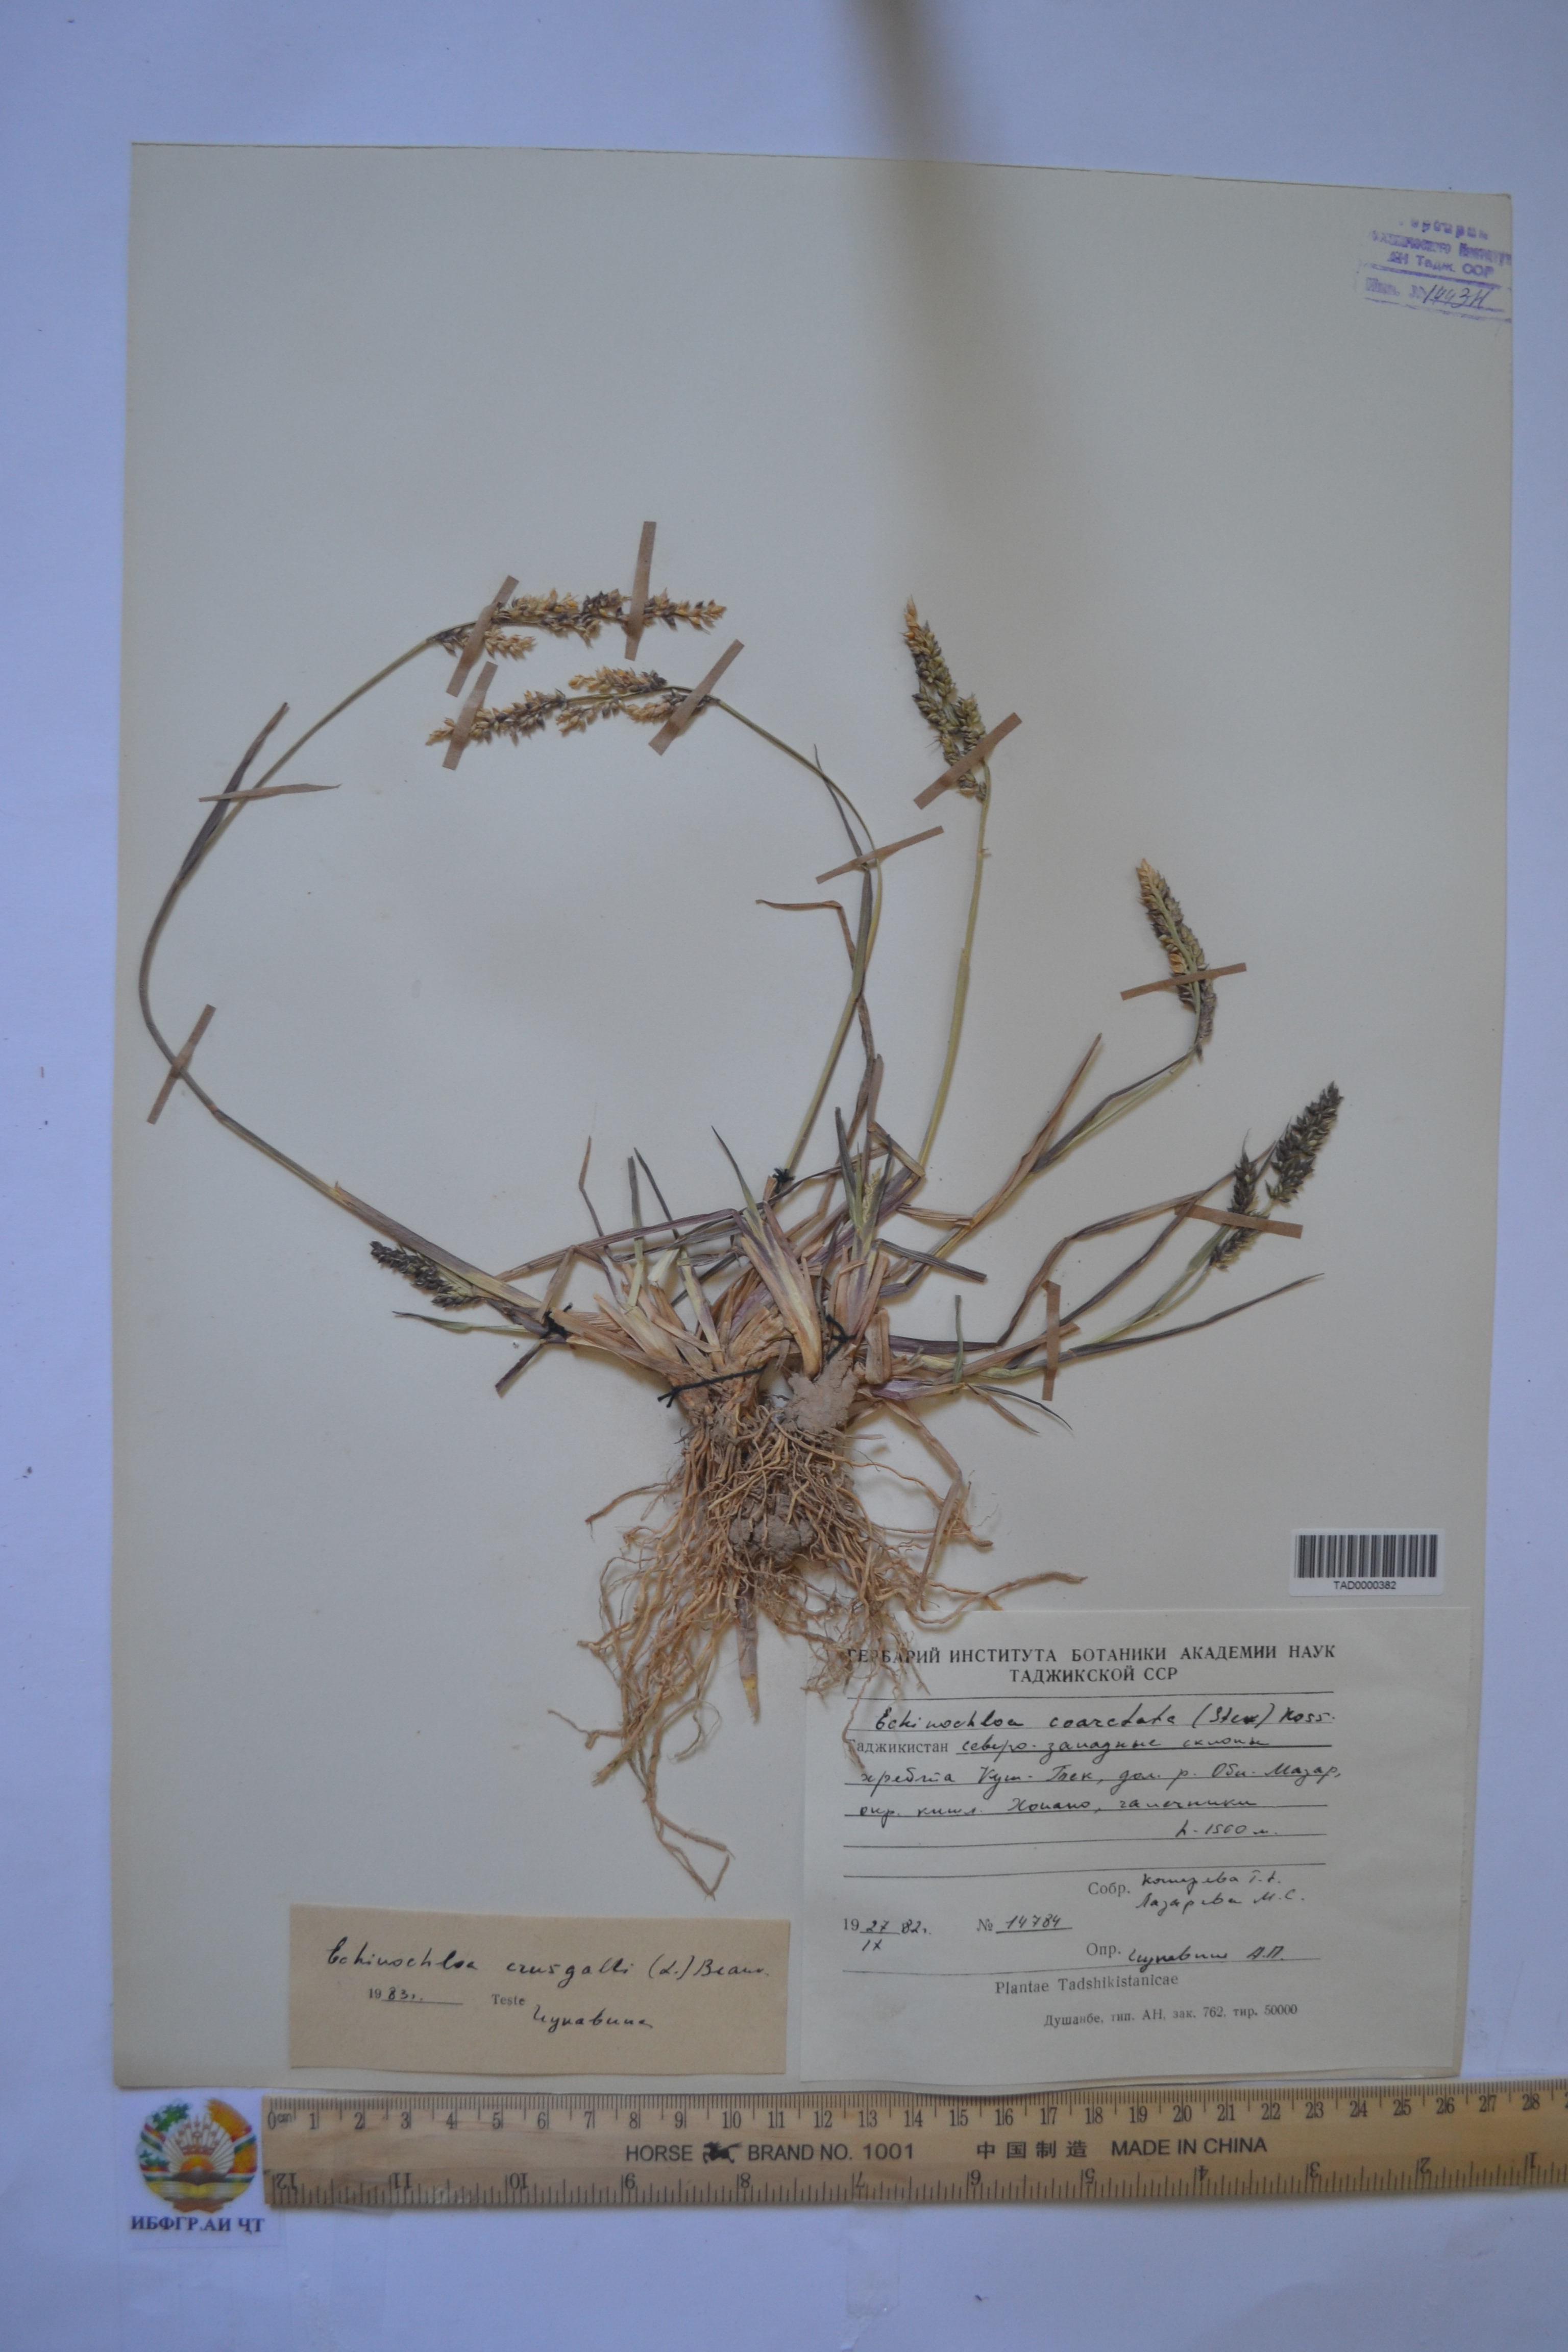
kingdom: Plantae
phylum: Tracheophyta
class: Liliopsida
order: Poales
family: Poaceae
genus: Echinochloa
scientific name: Echinochloa crus-galli
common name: Cockspur
